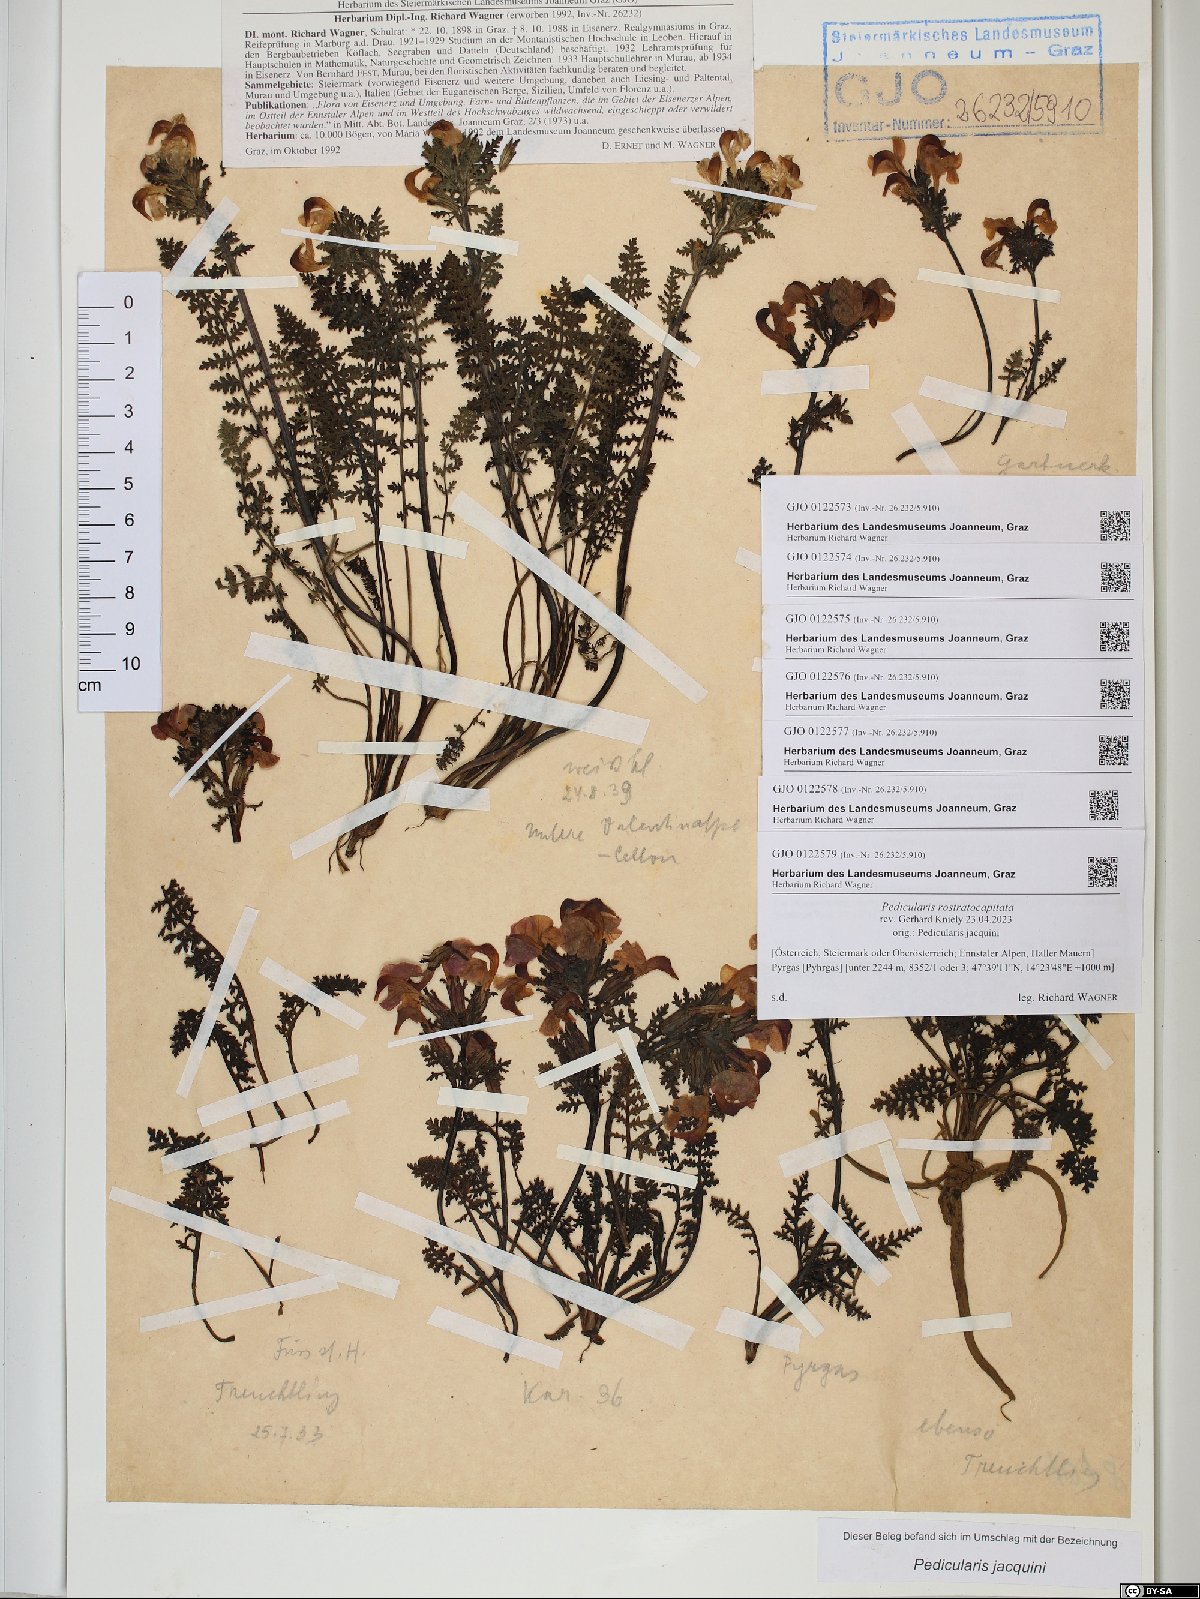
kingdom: Plantae
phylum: Tracheophyta
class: Magnoliopsida
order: Lamiales
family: Orobanchaceae
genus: Pedicularis
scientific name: Pedicularis rostratocapitata
